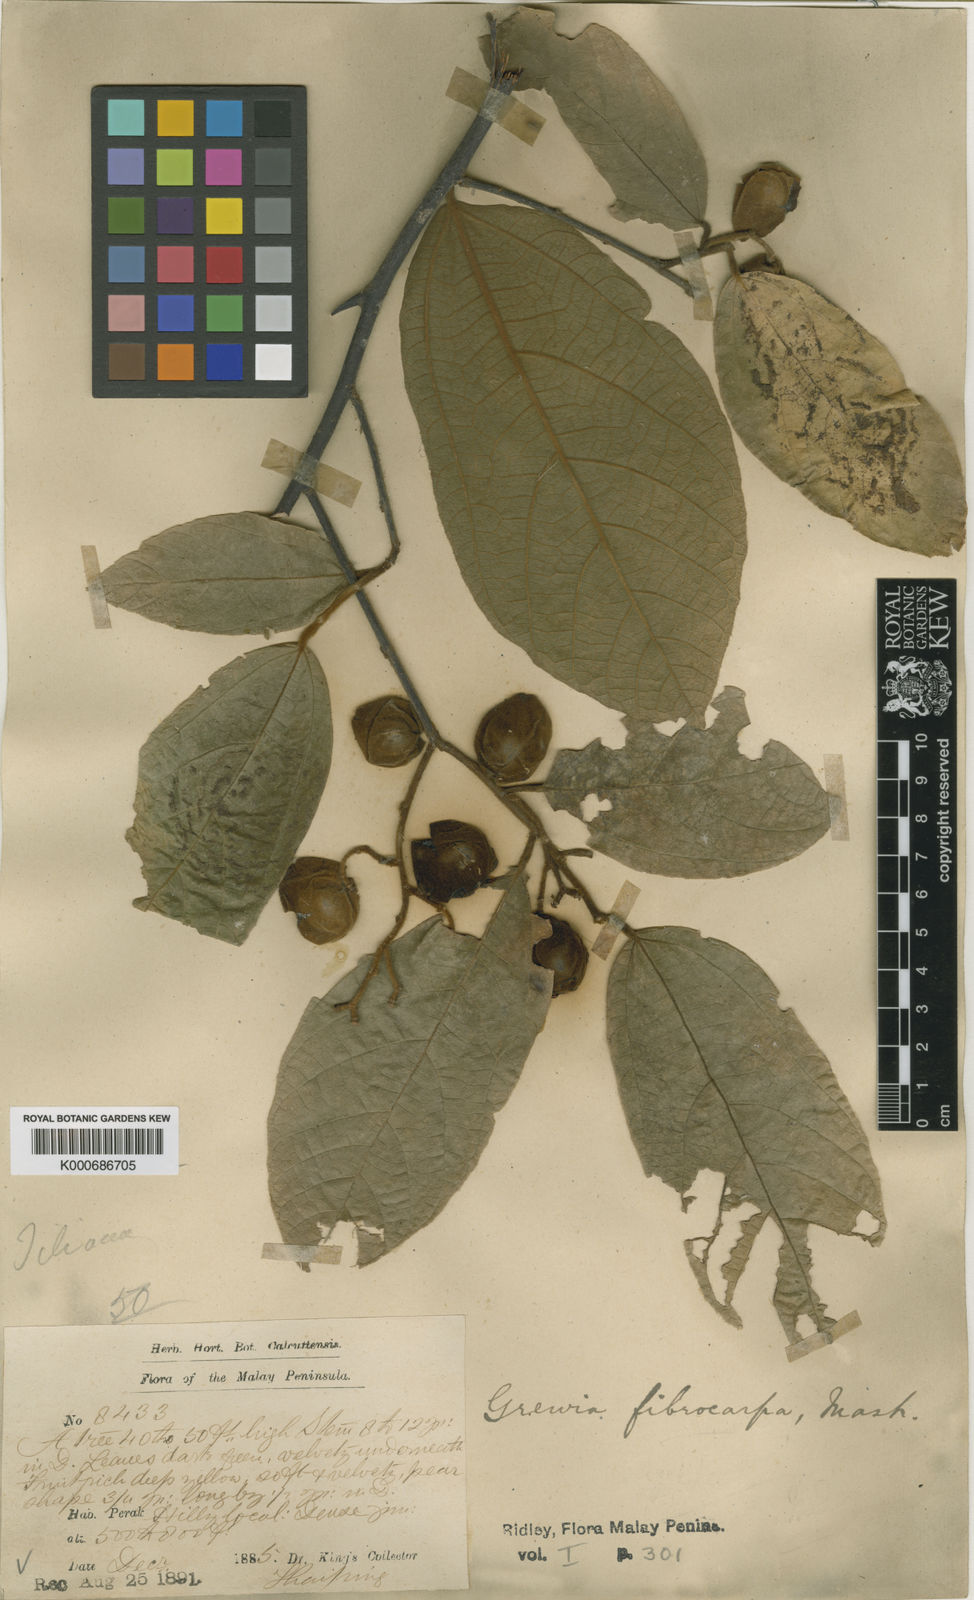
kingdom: Plantae
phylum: Tracheophyta
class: Magnoliopsida
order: Malvales
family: Malvaceae
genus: Microcos
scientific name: Microcos fibrocarpa
